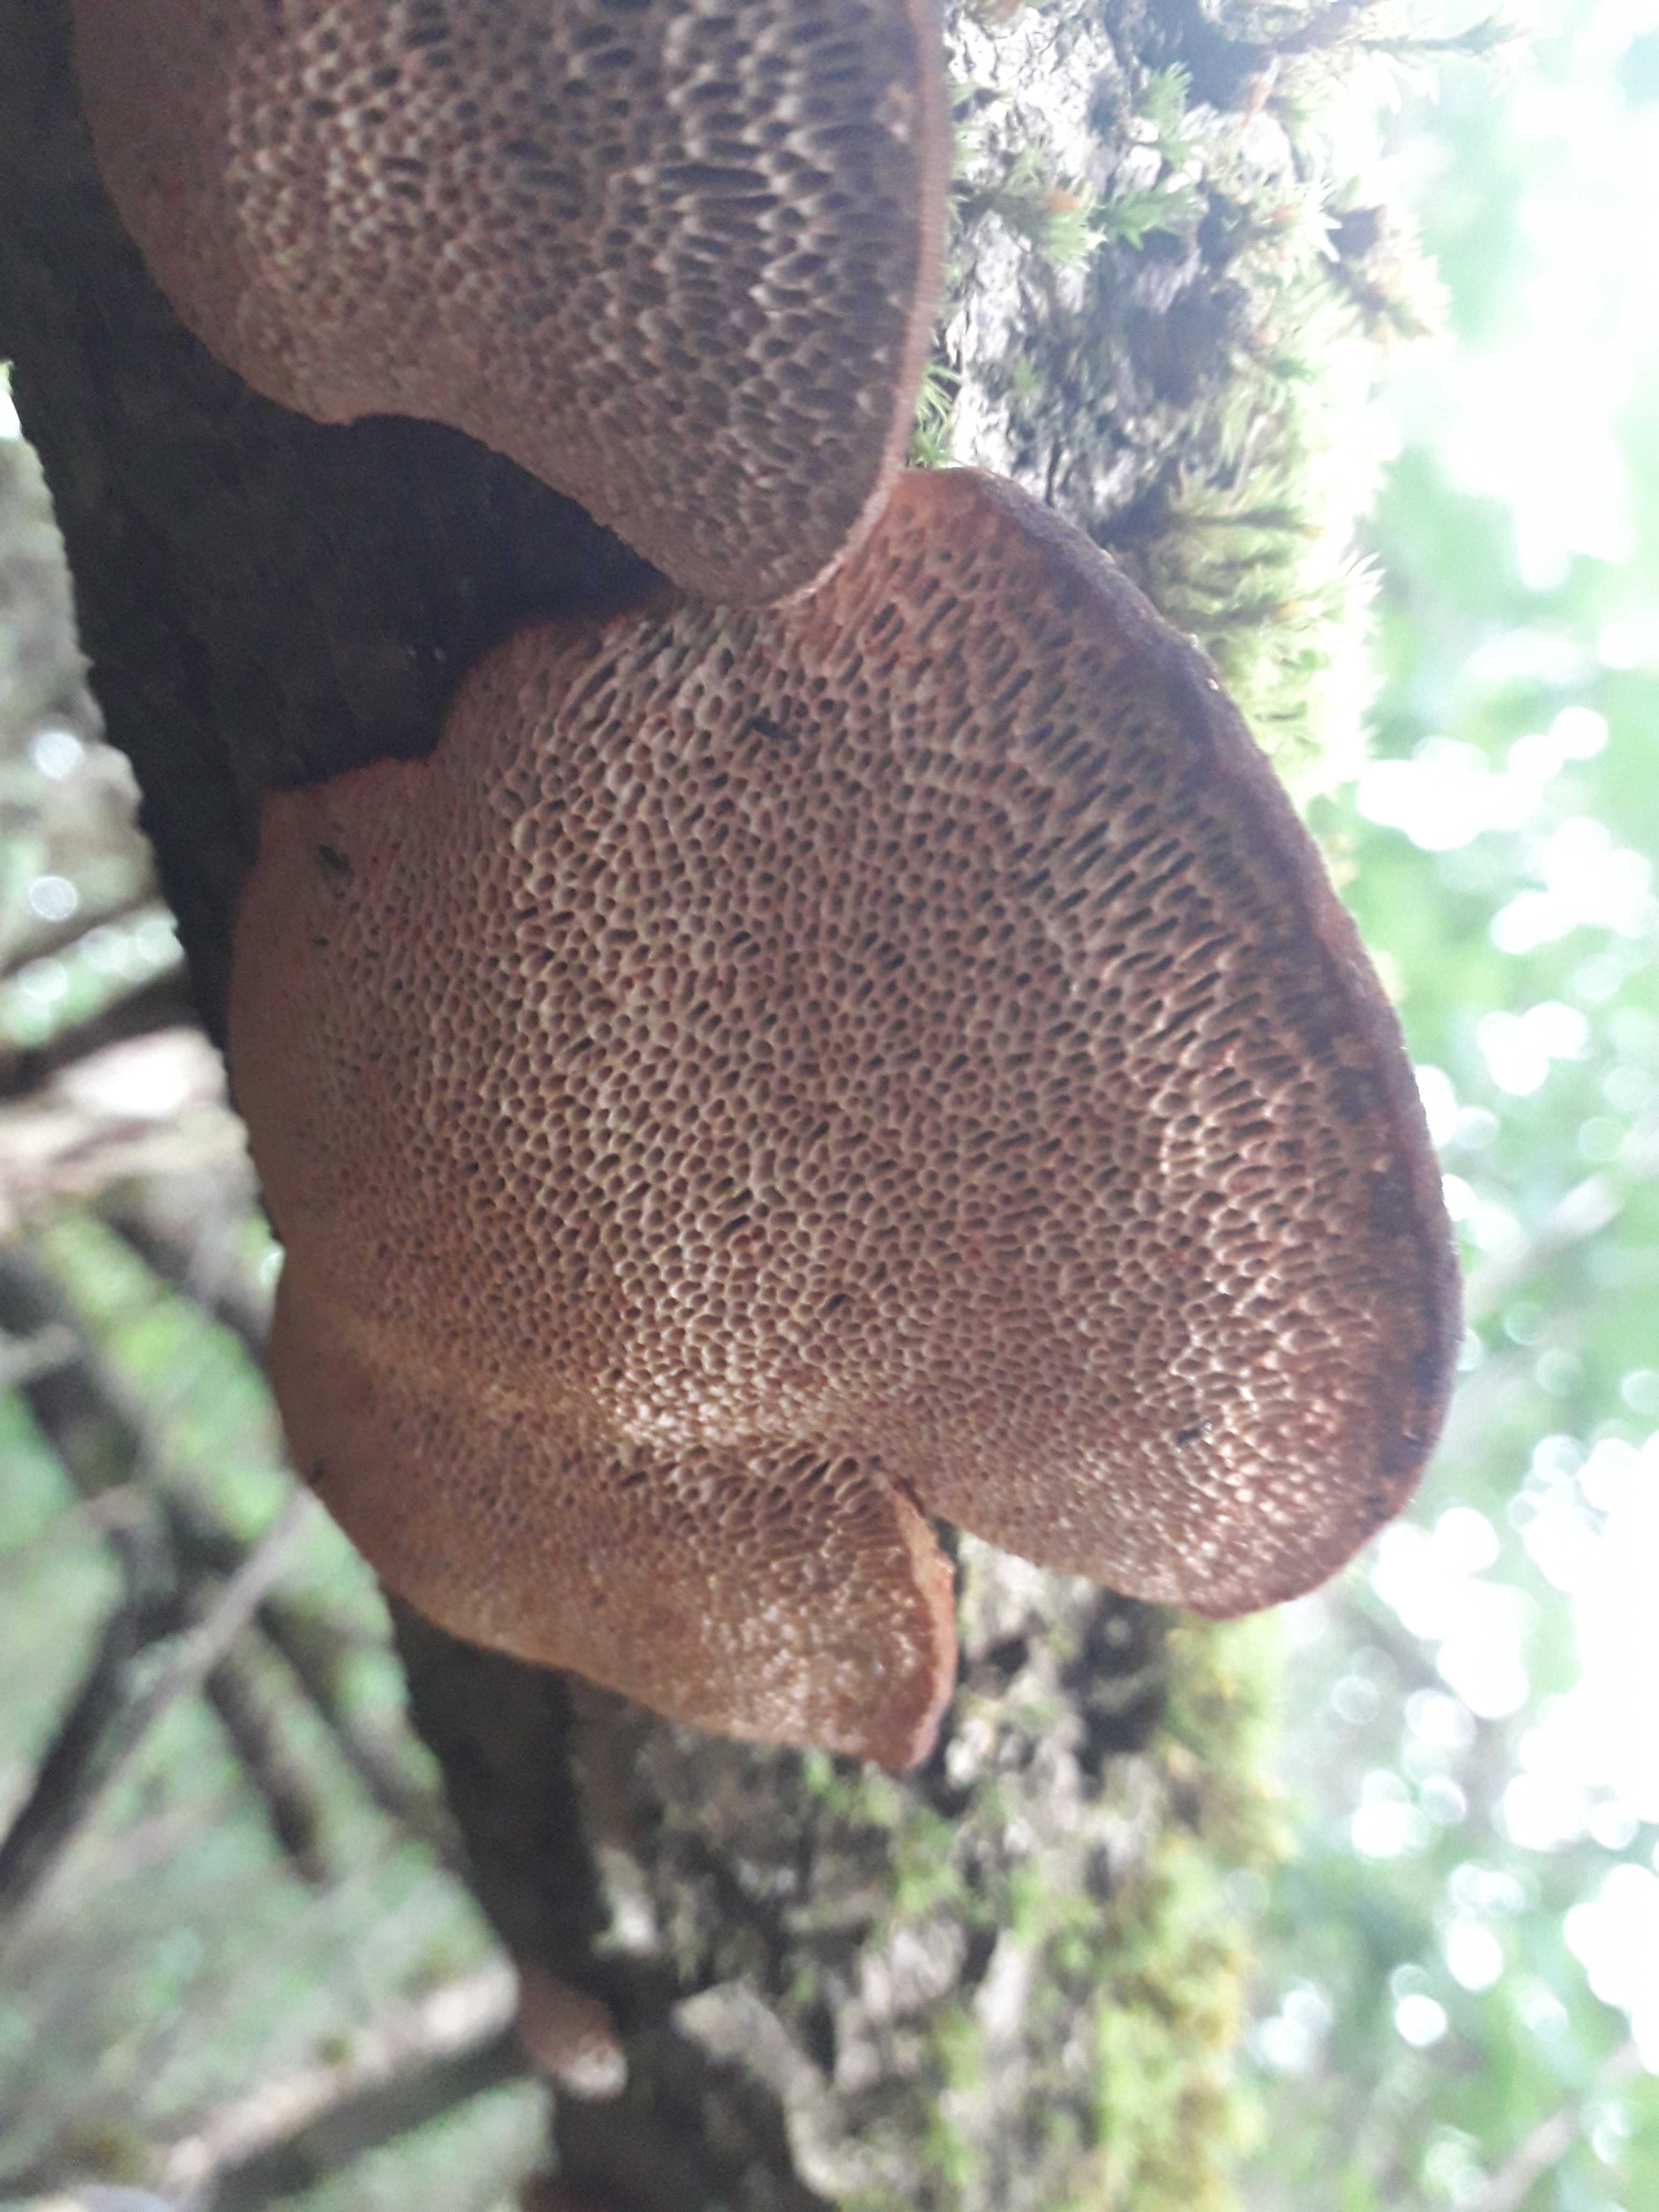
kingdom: Fungi
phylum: Basidiomycota
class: Agaricomycetes
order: Polyporales
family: Polyporaceae
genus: Daedaleopsis
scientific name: Daedaleopsis confragosa
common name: rødmende læderporesvamp
